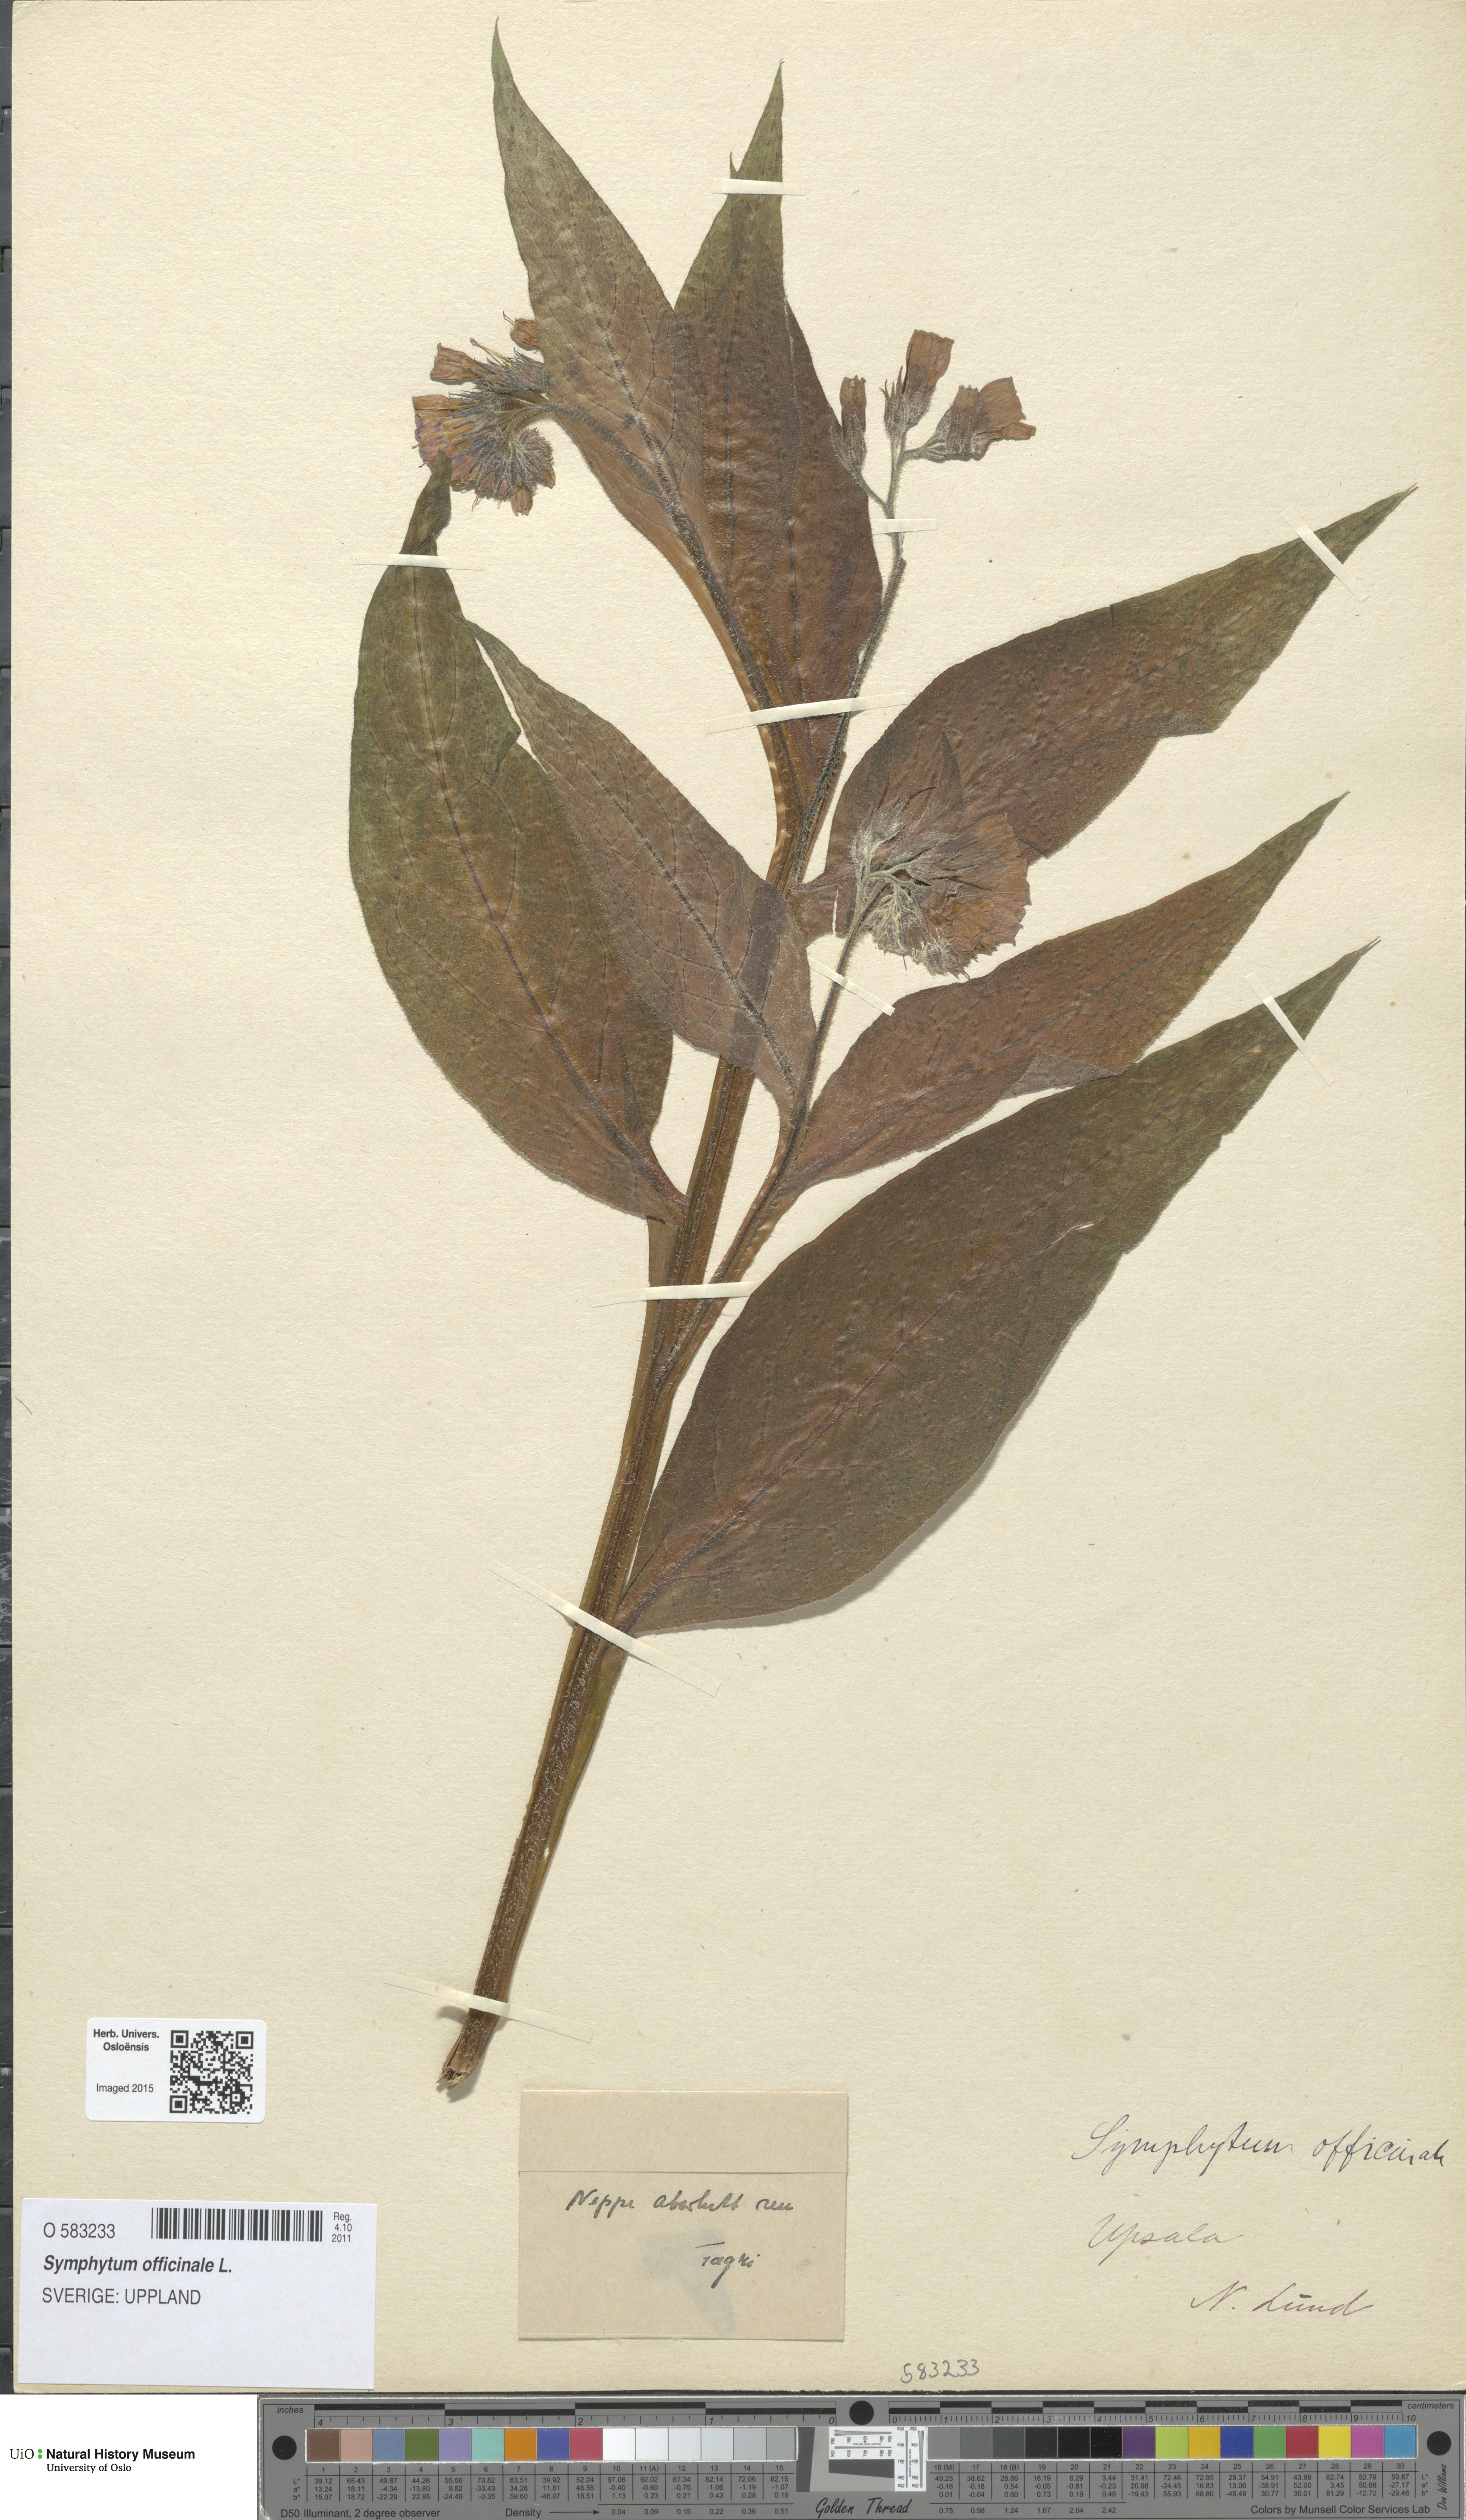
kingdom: Plantae
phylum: Tracheophyta
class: Magnoliopsida
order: Boraginales
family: Boraginaceae
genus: Symphytum
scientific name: Symphytum officinale
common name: Common comfrey
